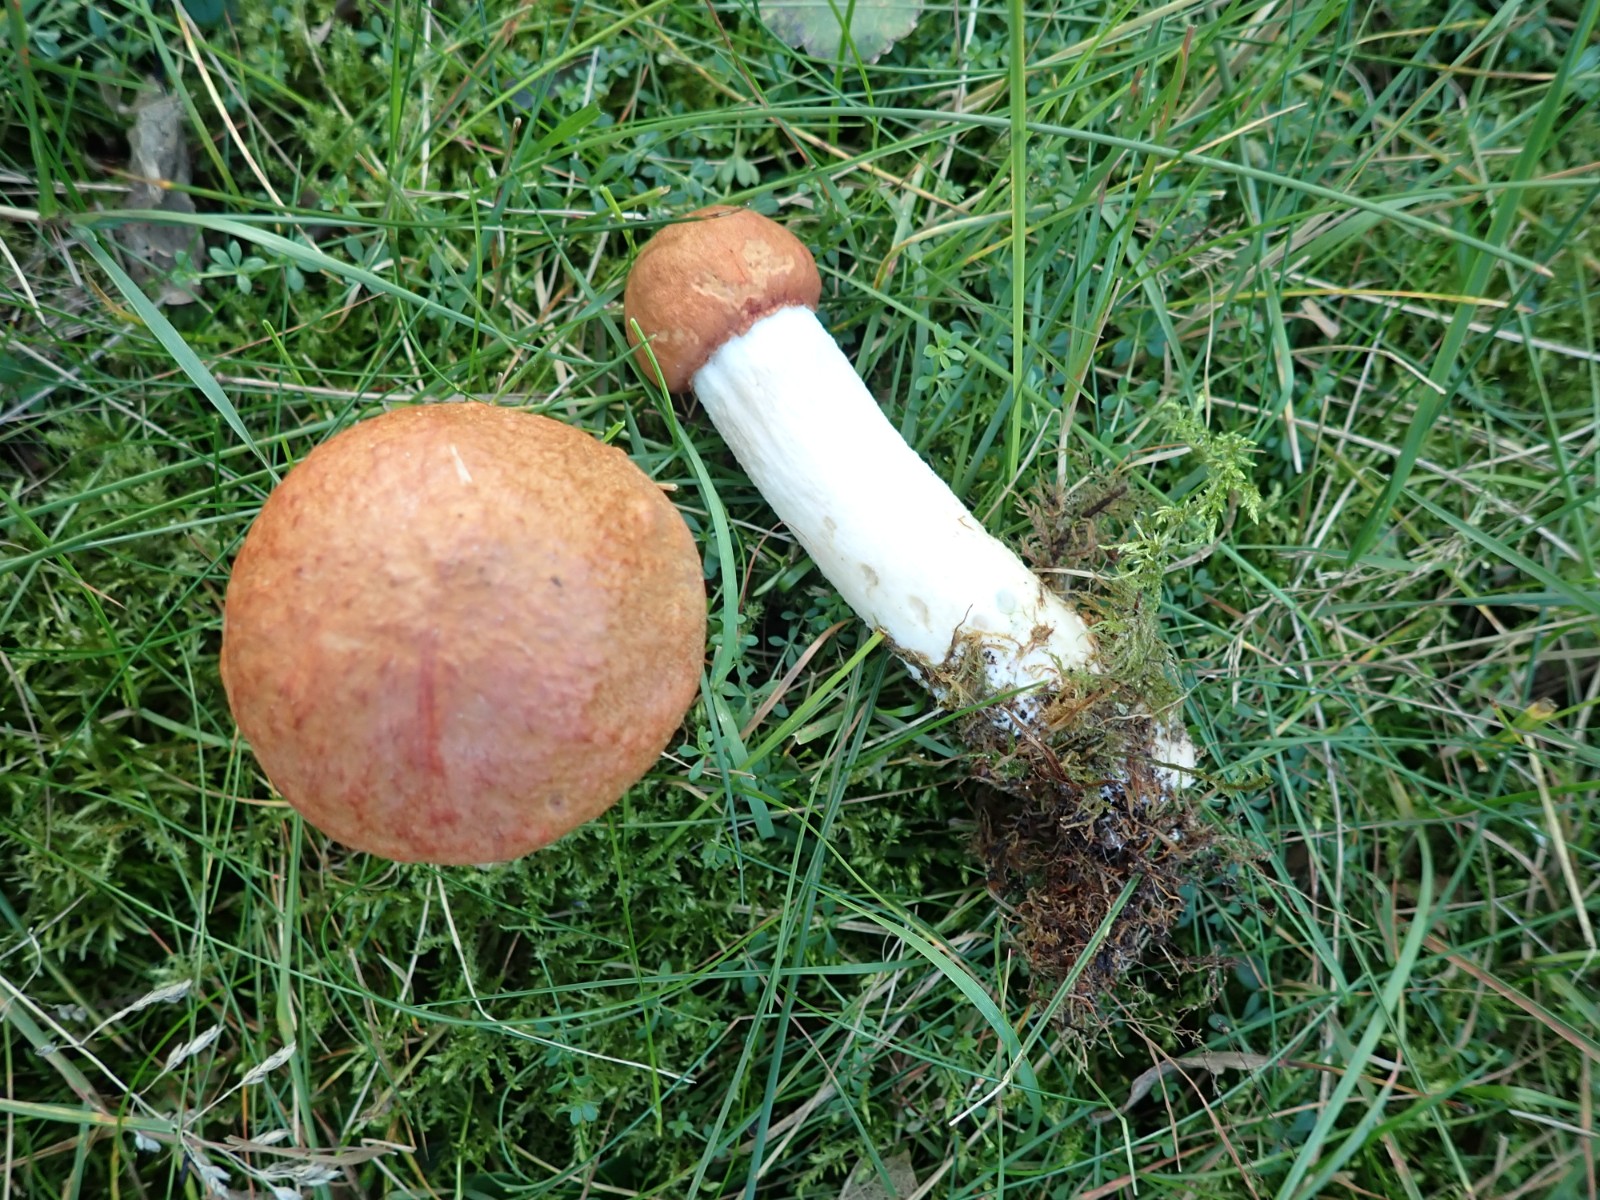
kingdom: Fungi
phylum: Basidiomycota
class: Agaricomycetes
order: Boletales
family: Boletaceae
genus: Leccinum
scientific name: Leccinum albostipitatum
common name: aspe-skælrørhat
